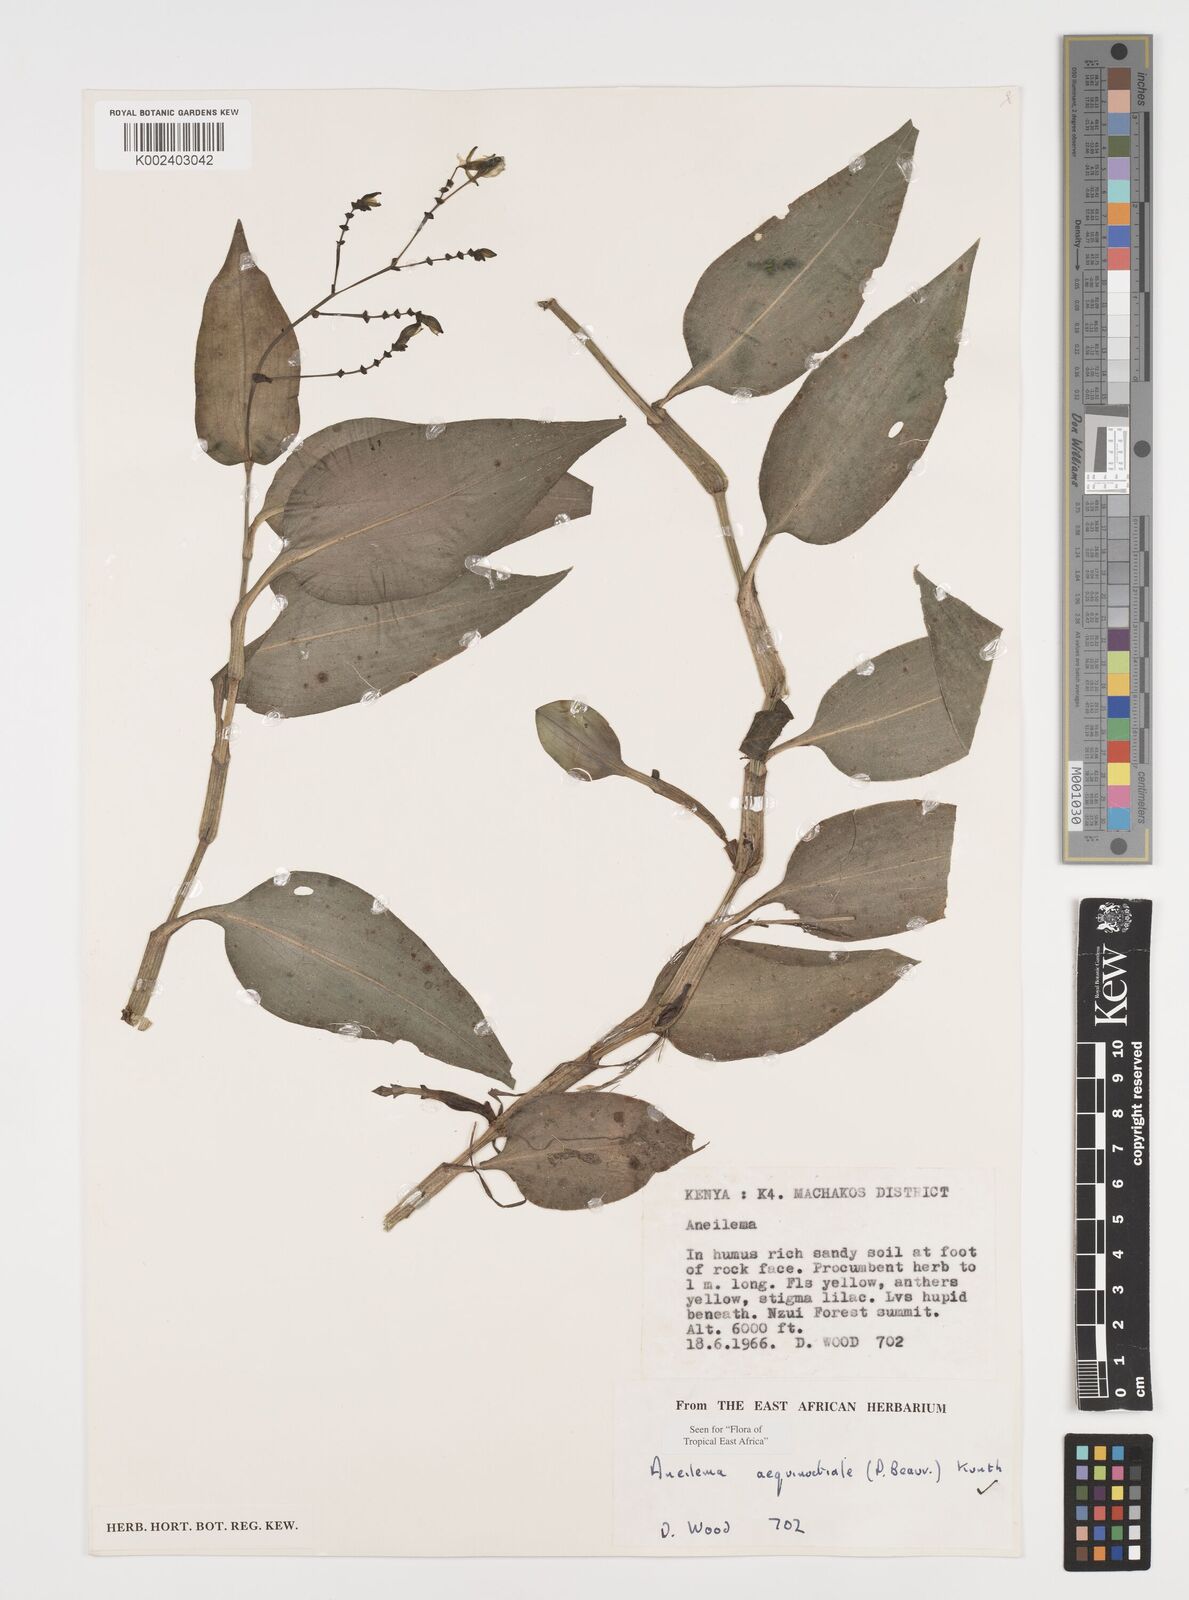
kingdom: Plantae
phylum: Tracheophyta
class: Liliopsida
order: Commelinales
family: Commelinaceae
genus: Aneilema
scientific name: Aneilema aequinoctiale
